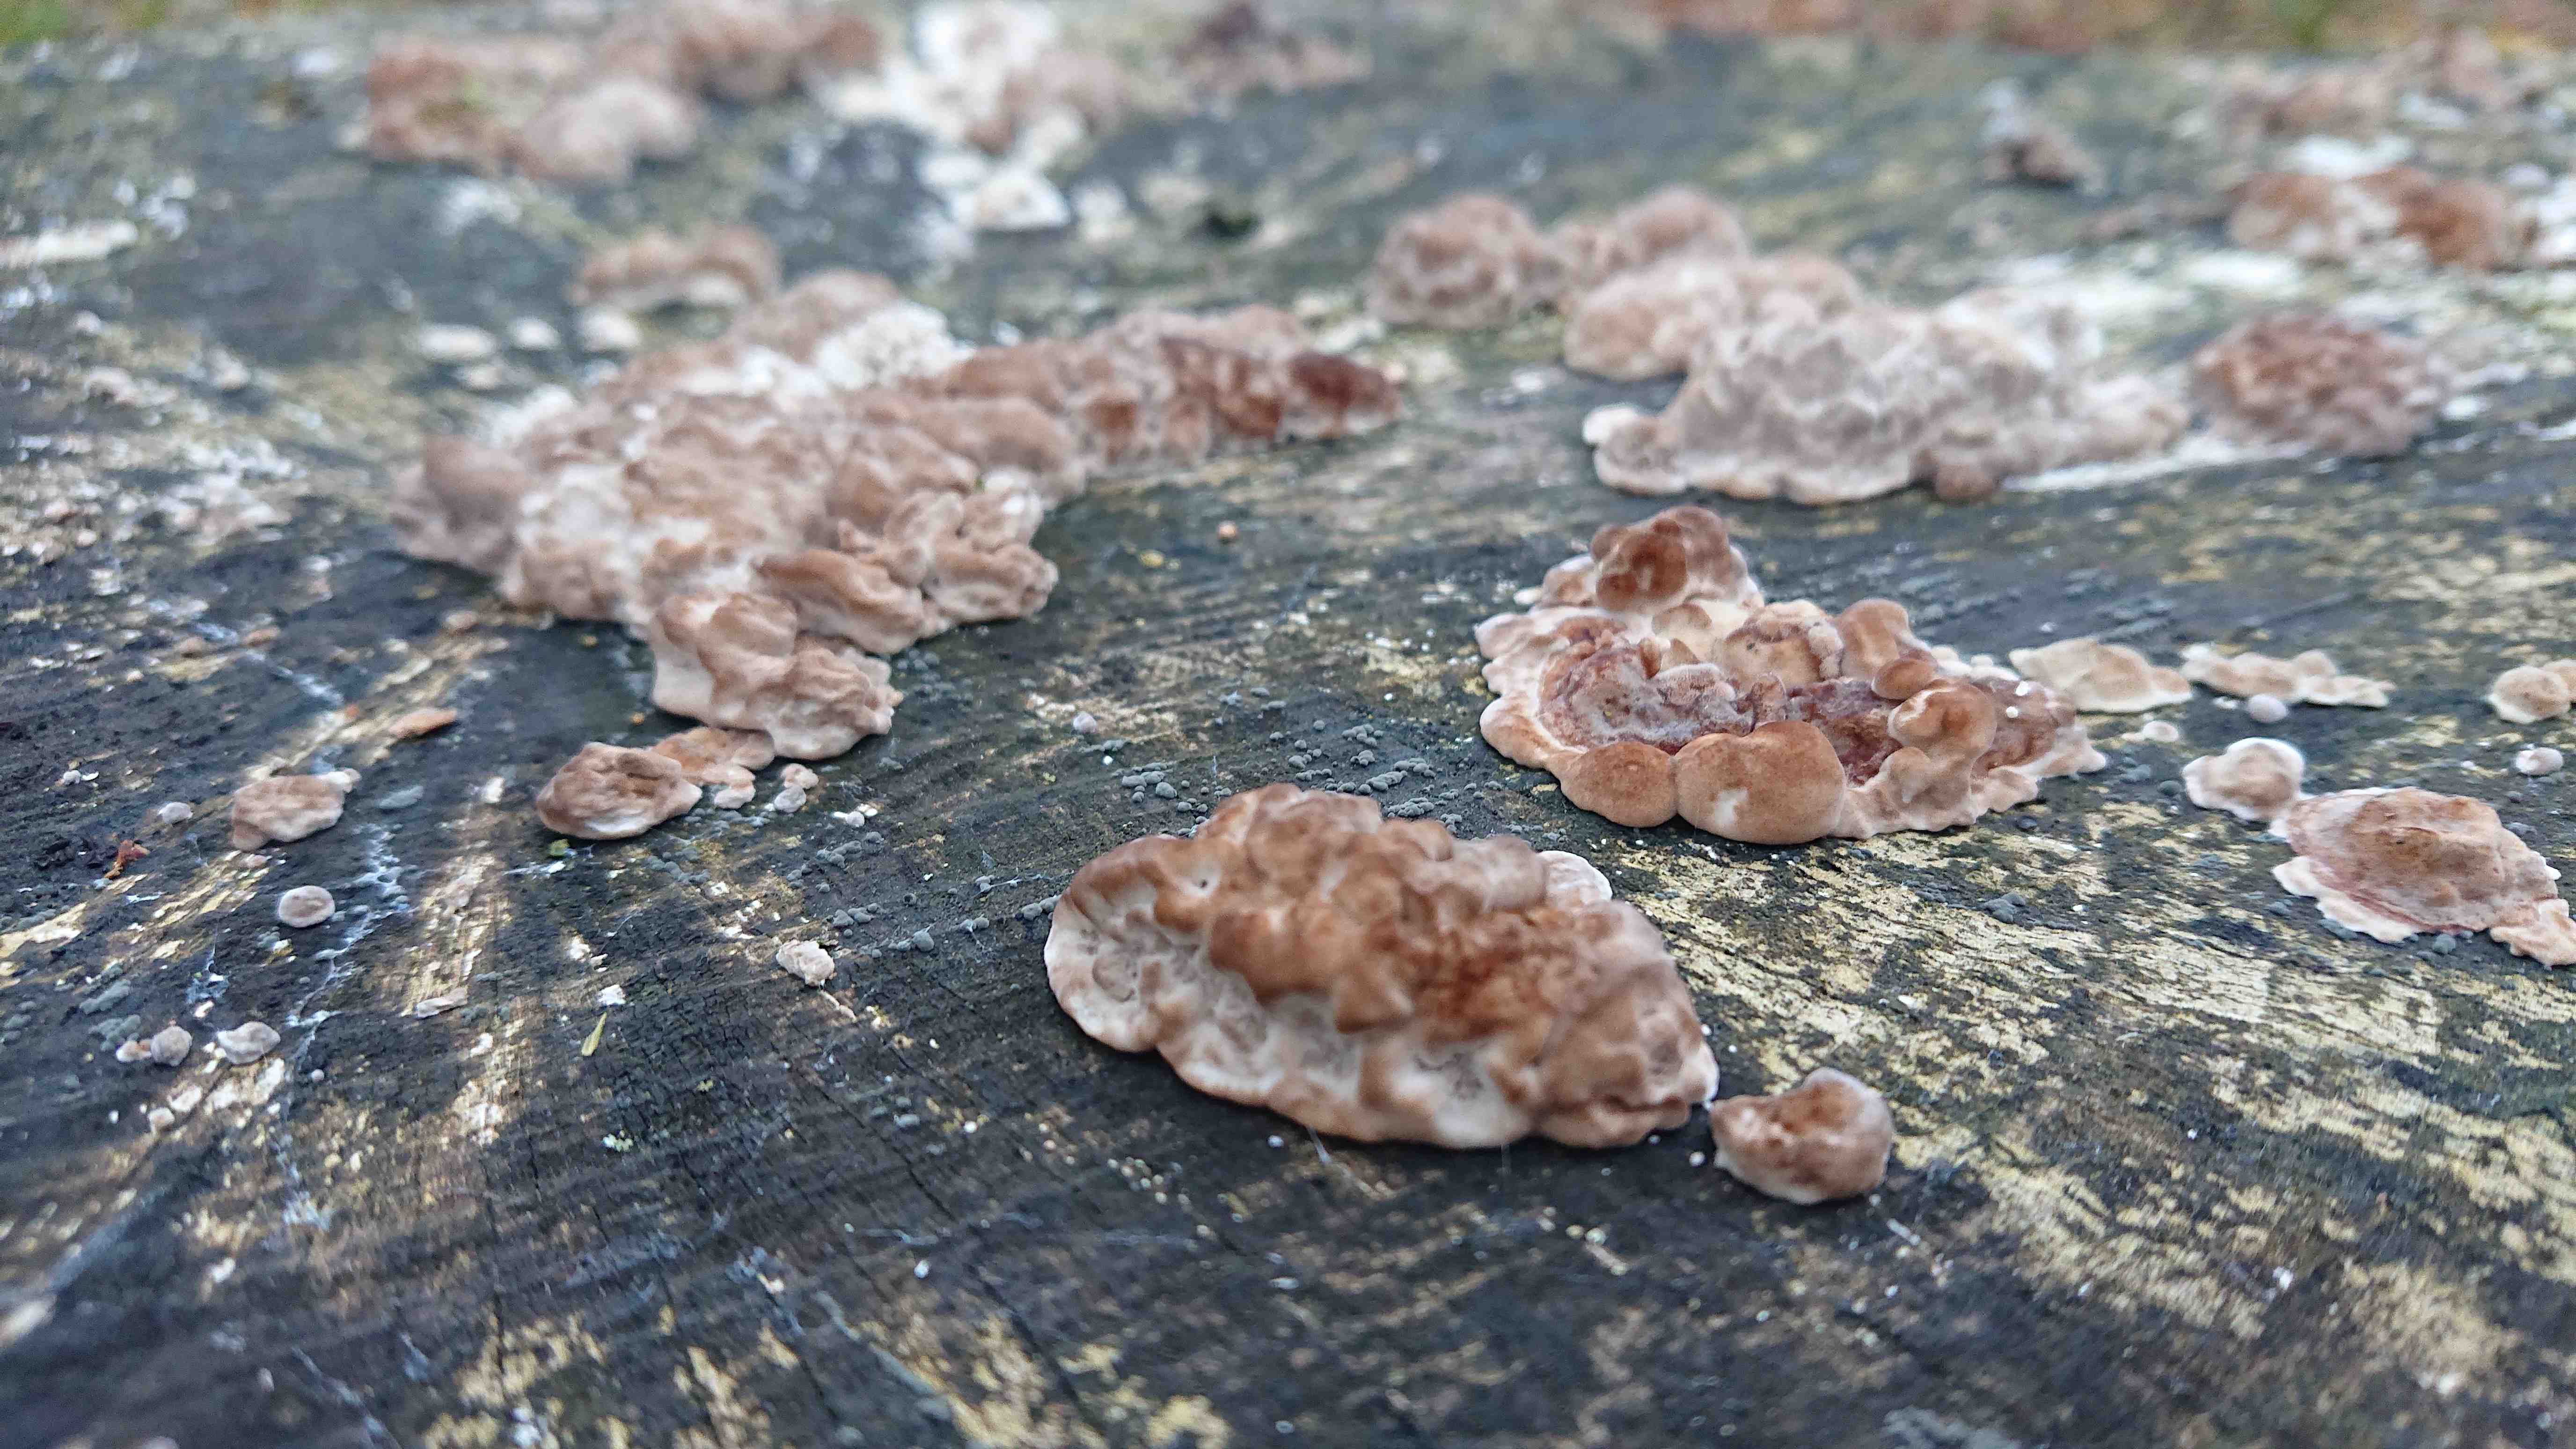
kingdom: Fungi
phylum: Basidiomycota
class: Agaricomycetes
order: Polyporales
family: Polyporaceae
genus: Trametes
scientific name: Trametes
